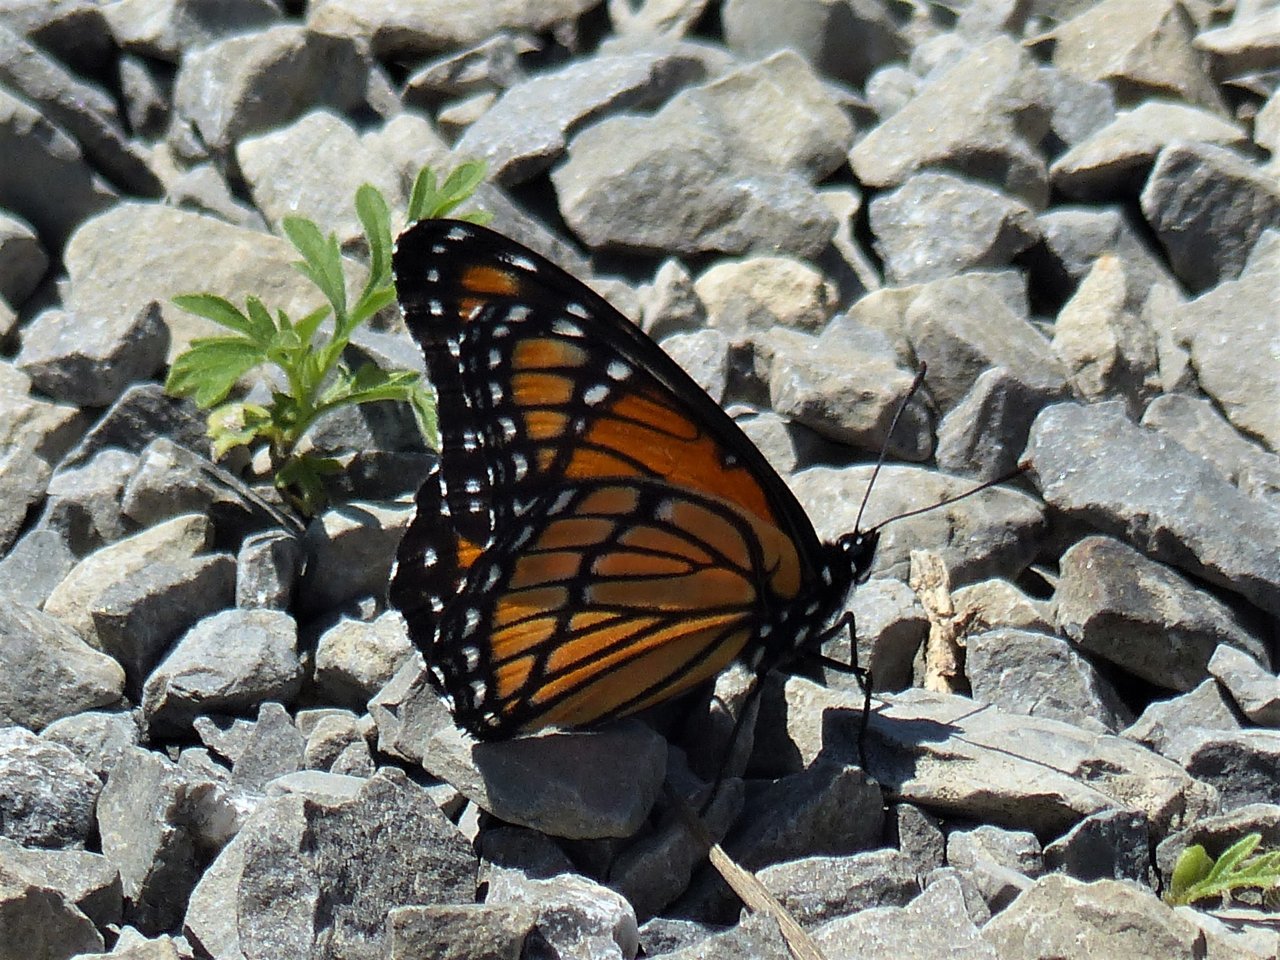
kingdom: Animalia
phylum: Arthropoda
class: Insecta
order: Lepidoptera
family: Nymphalidae
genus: Limenitis
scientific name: Limenitis archippus
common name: Viceroy
